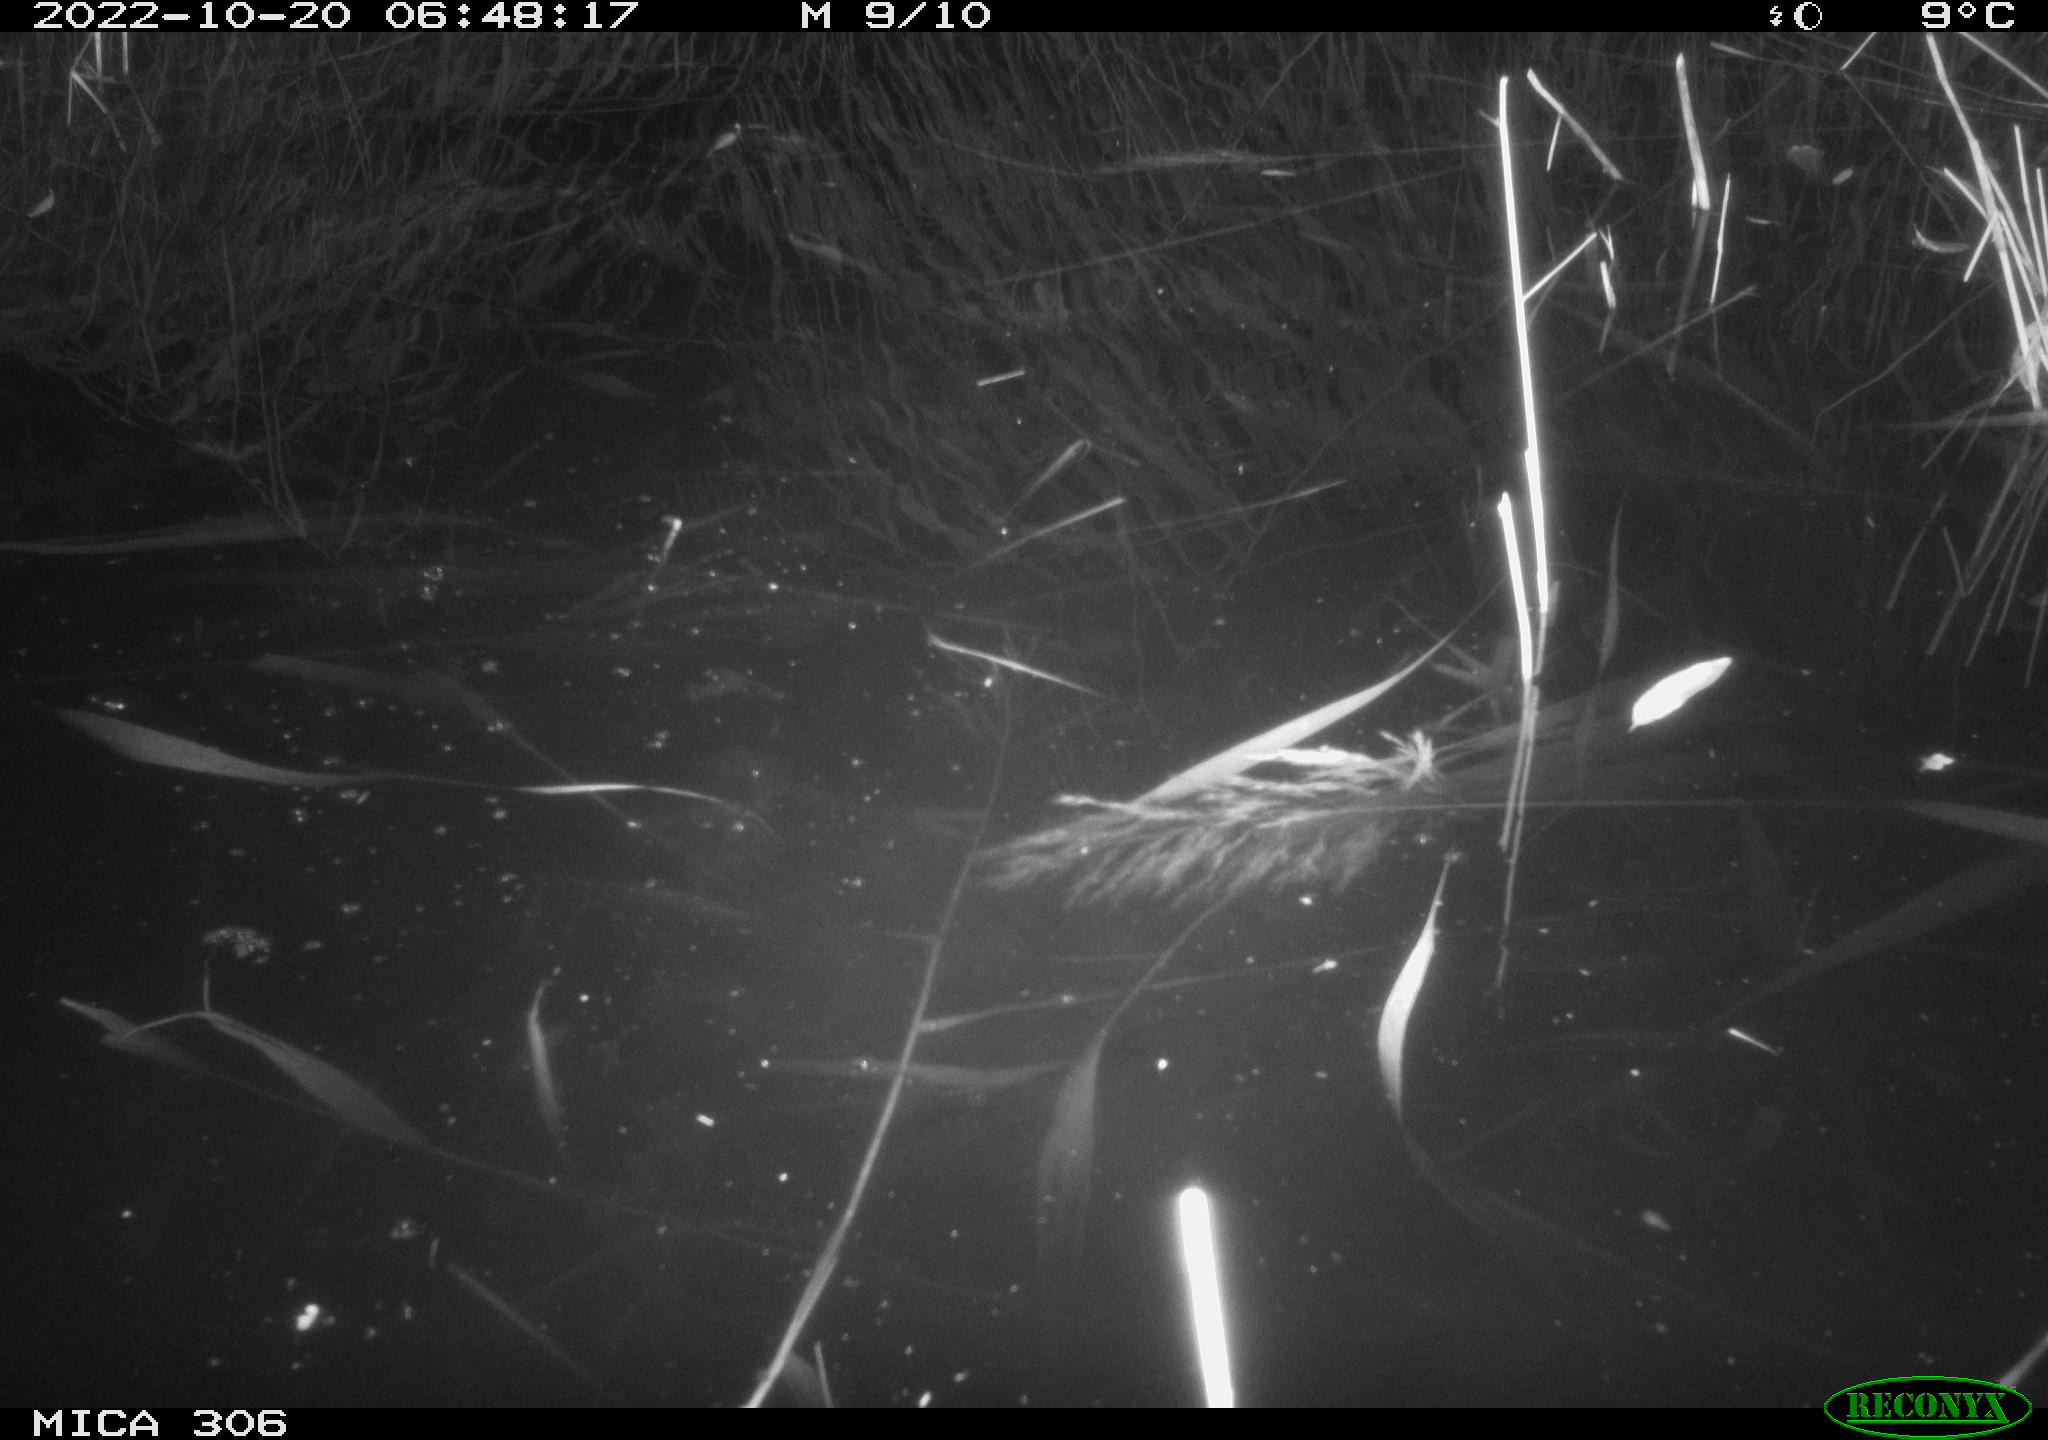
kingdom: Animalia
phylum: Chordata
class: Mammalia
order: Rodentia
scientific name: Rodentia
